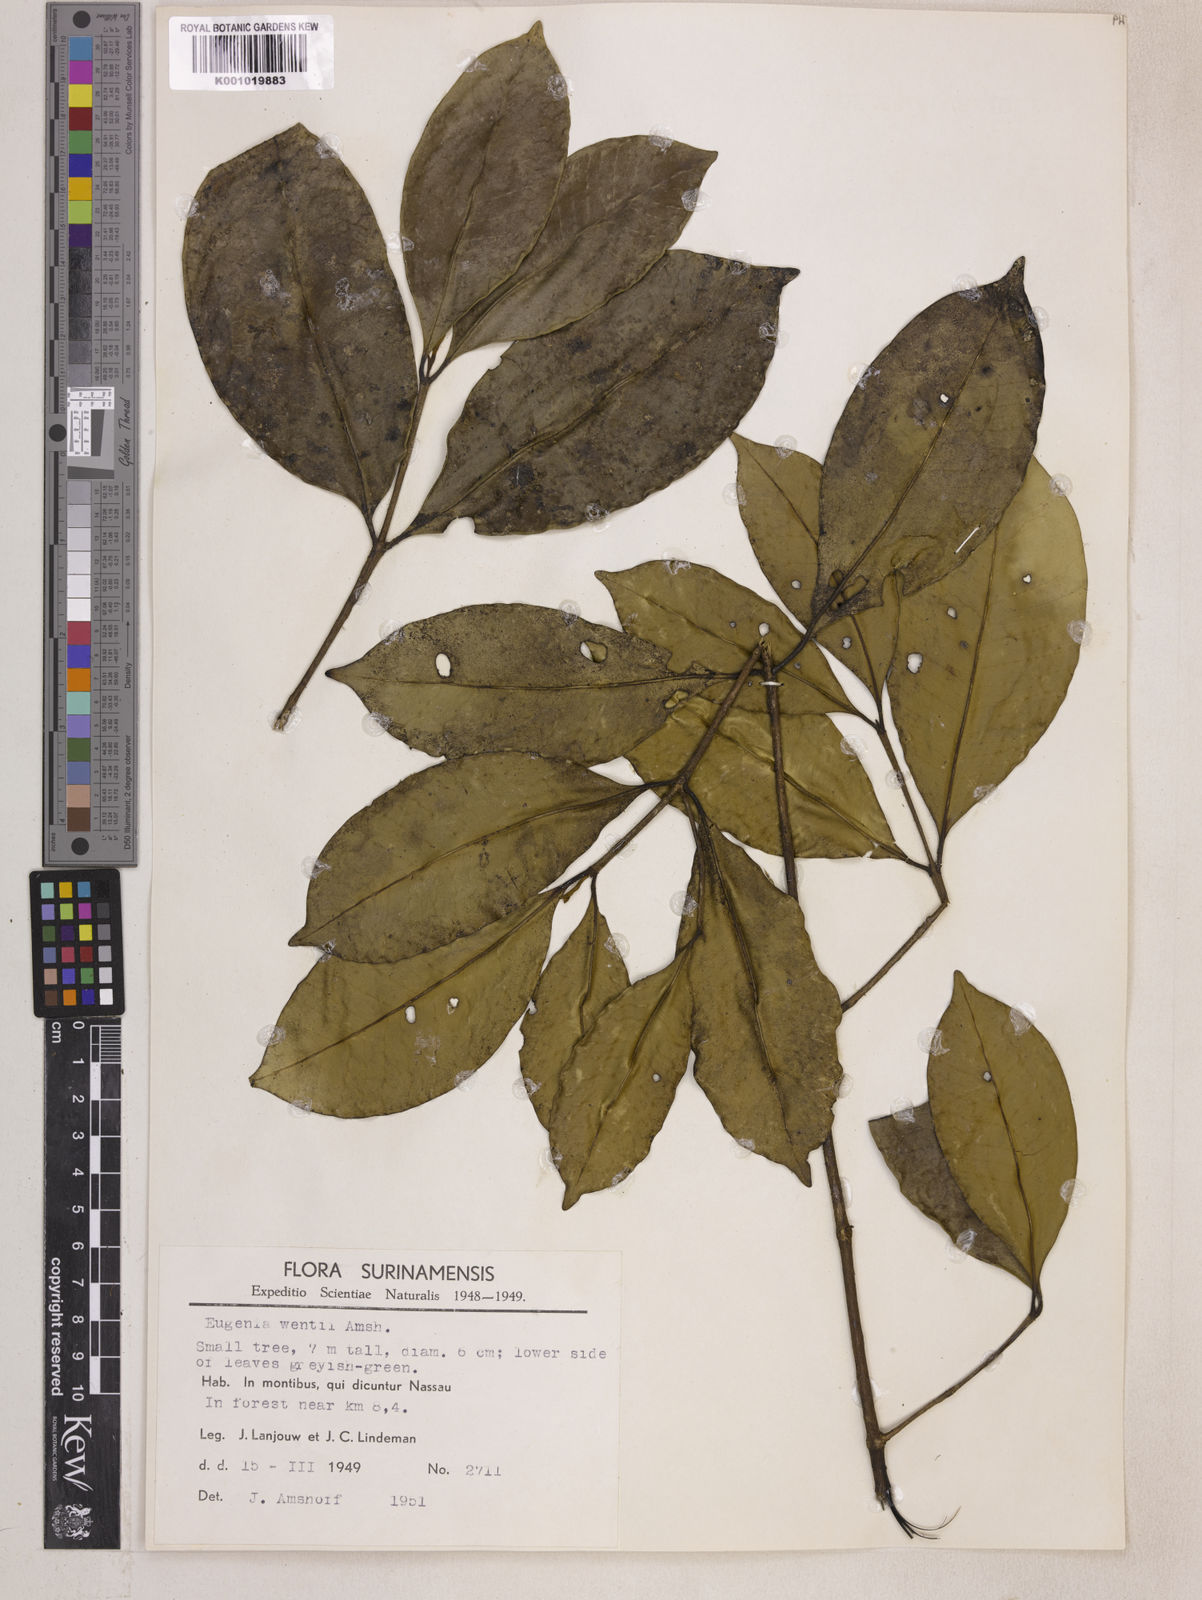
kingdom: Plantae
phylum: Tracheophyta
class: Magnoliopsida
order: Myrtales
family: Myrtaceae
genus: Eugenia
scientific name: Eugenia wentii
